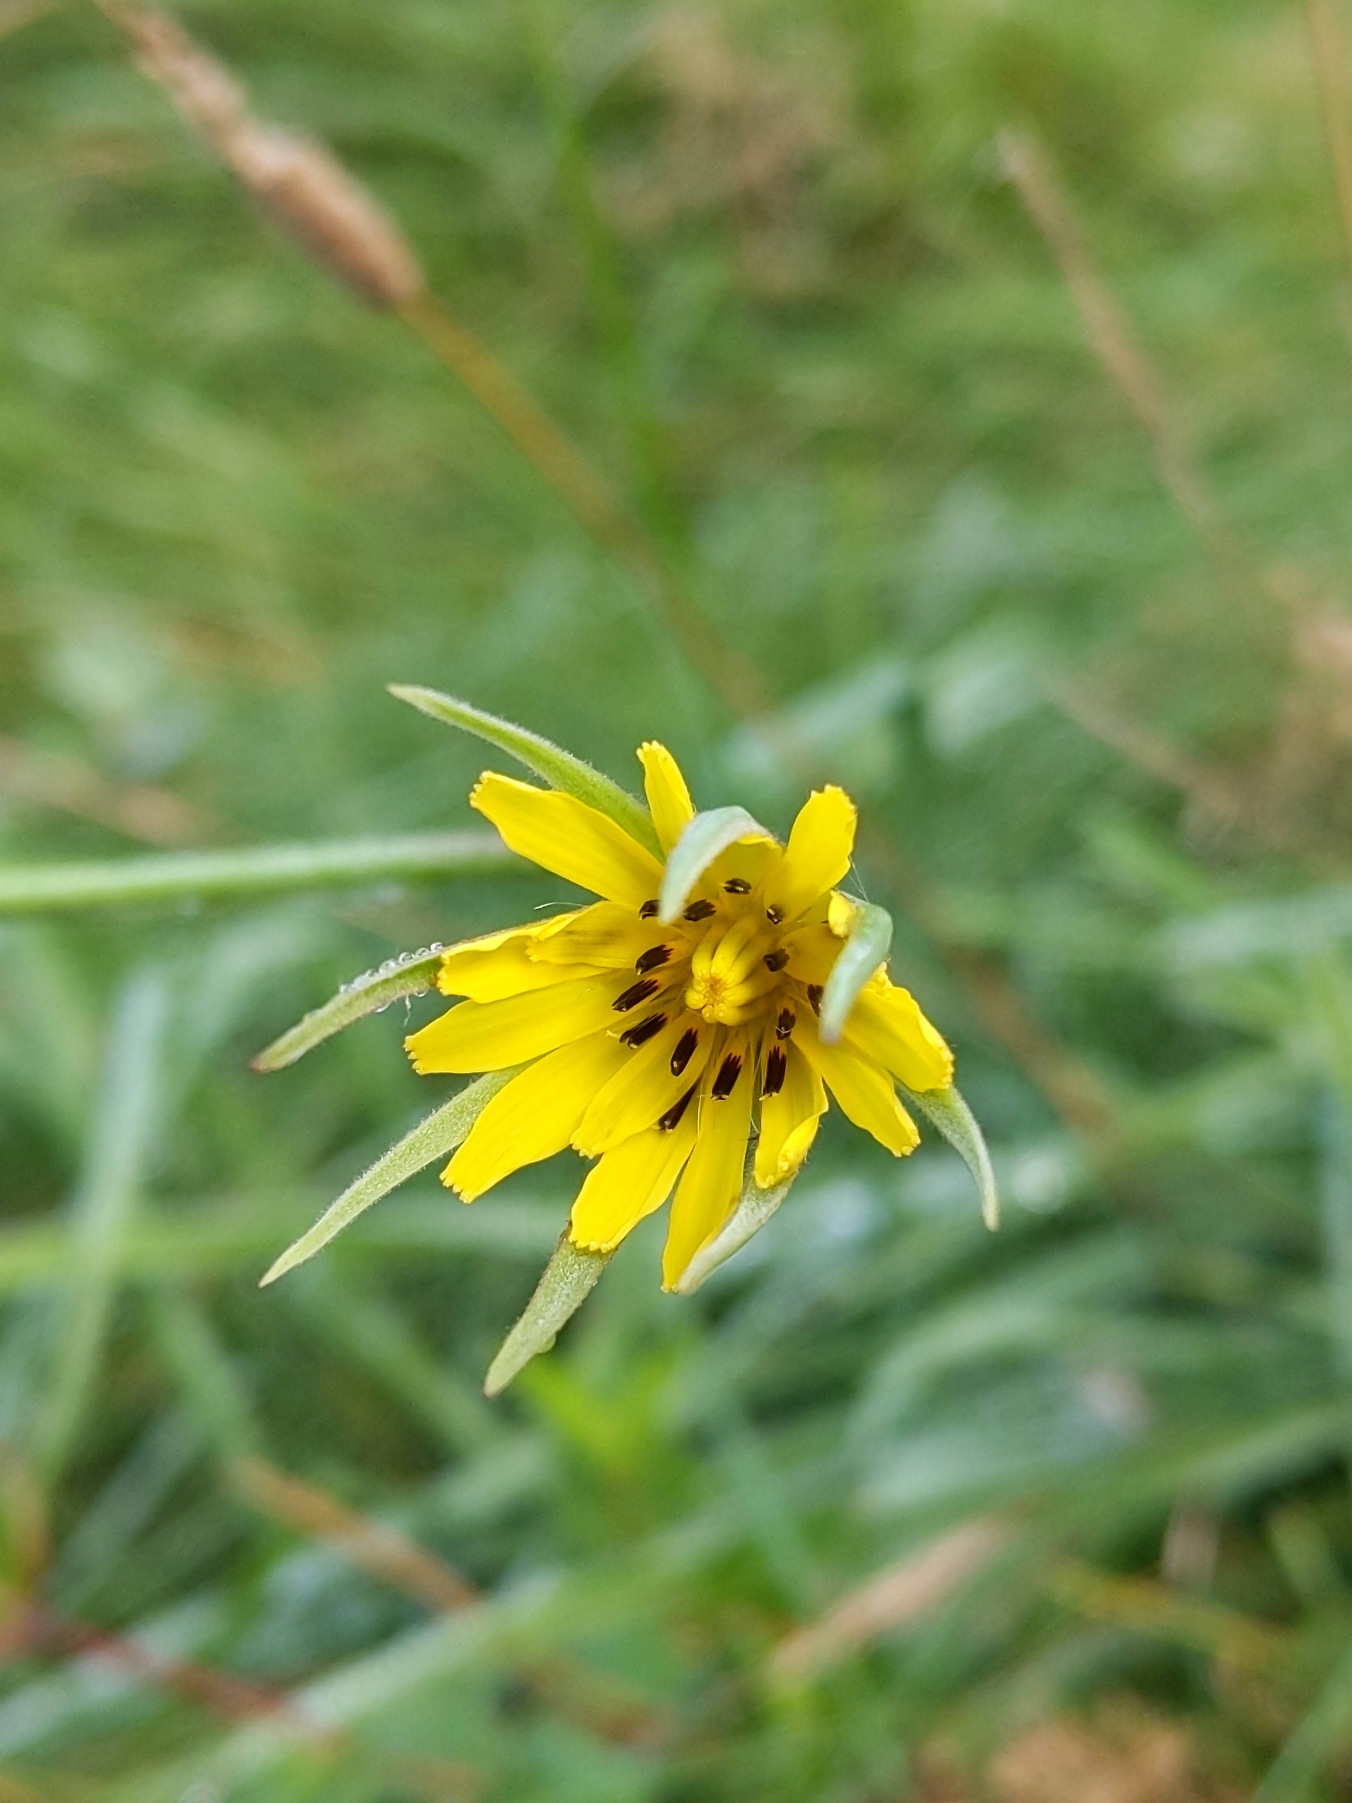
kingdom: Plantae
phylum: Tracheophyta
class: Magnoliopsida
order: Asterales
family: Asteraceae
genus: Tragopogon
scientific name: Tragopogon pratensis
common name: Gedeskæg
